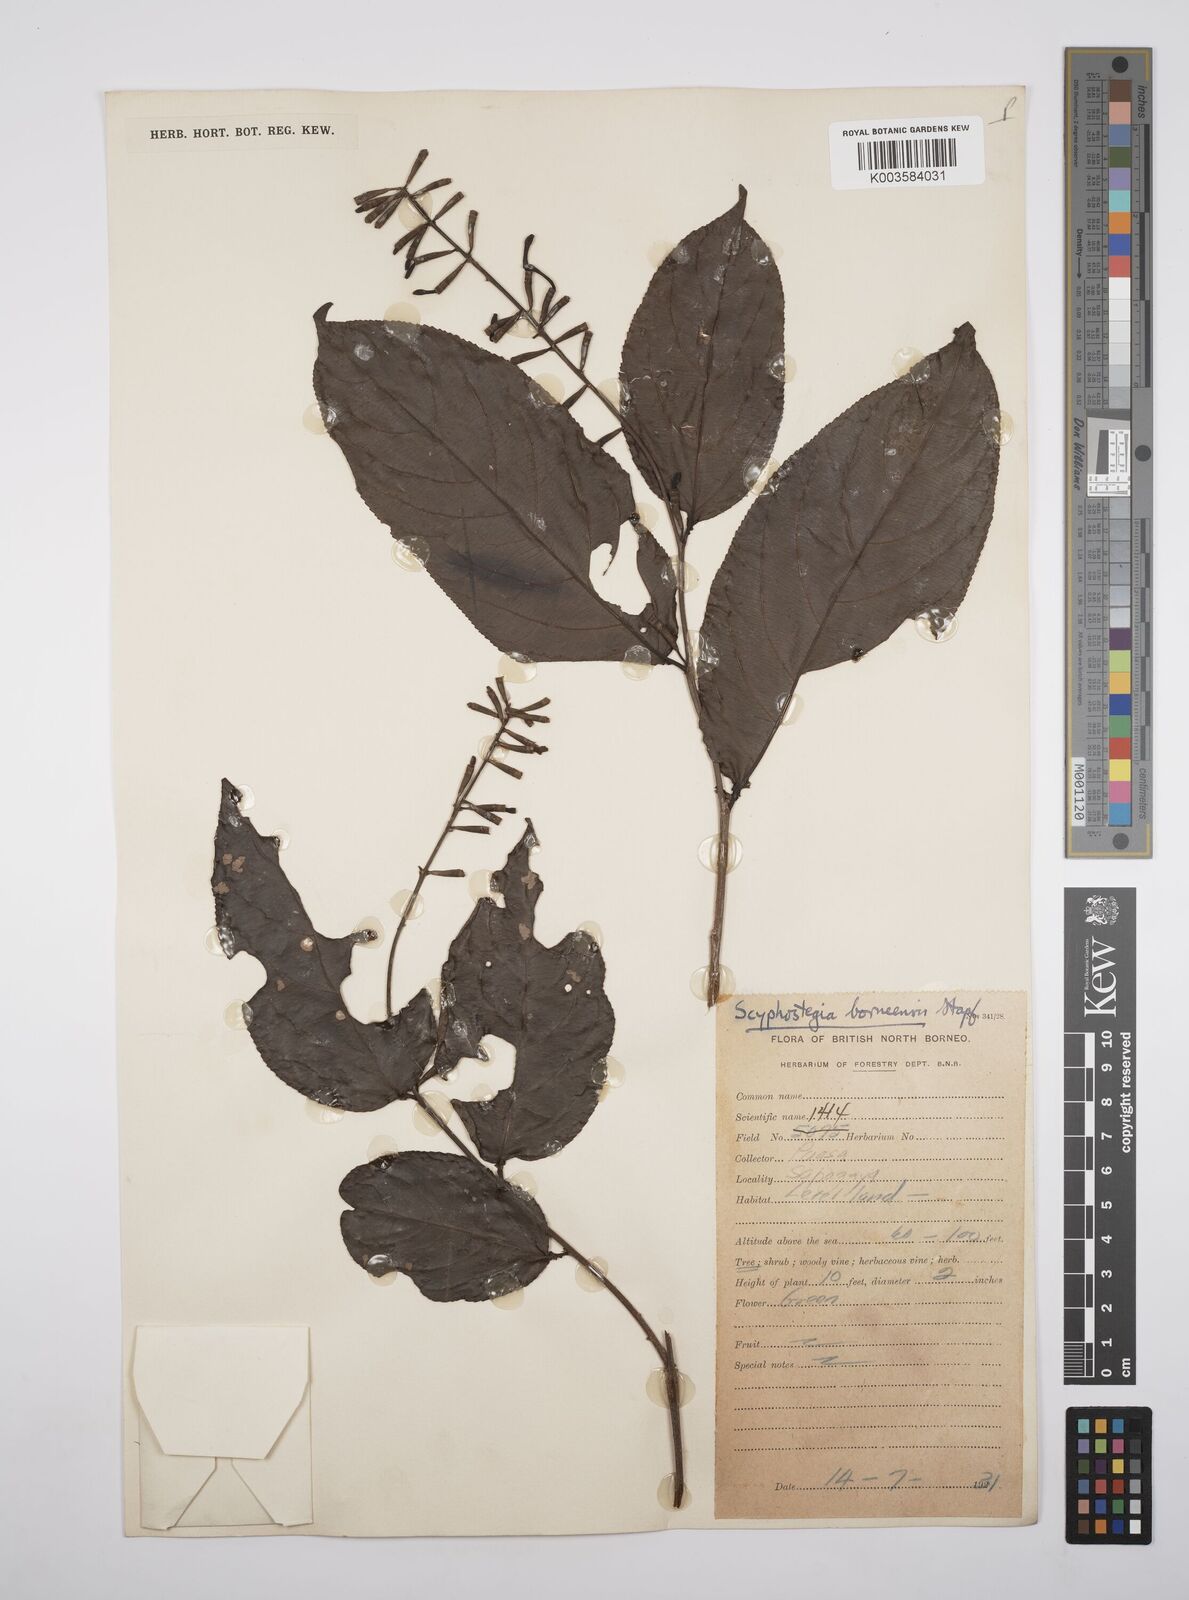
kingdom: Plantae
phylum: Tracheophyta
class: Magnoliopsida
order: Malpighiales
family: Salicaceae
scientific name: Salicaceae
